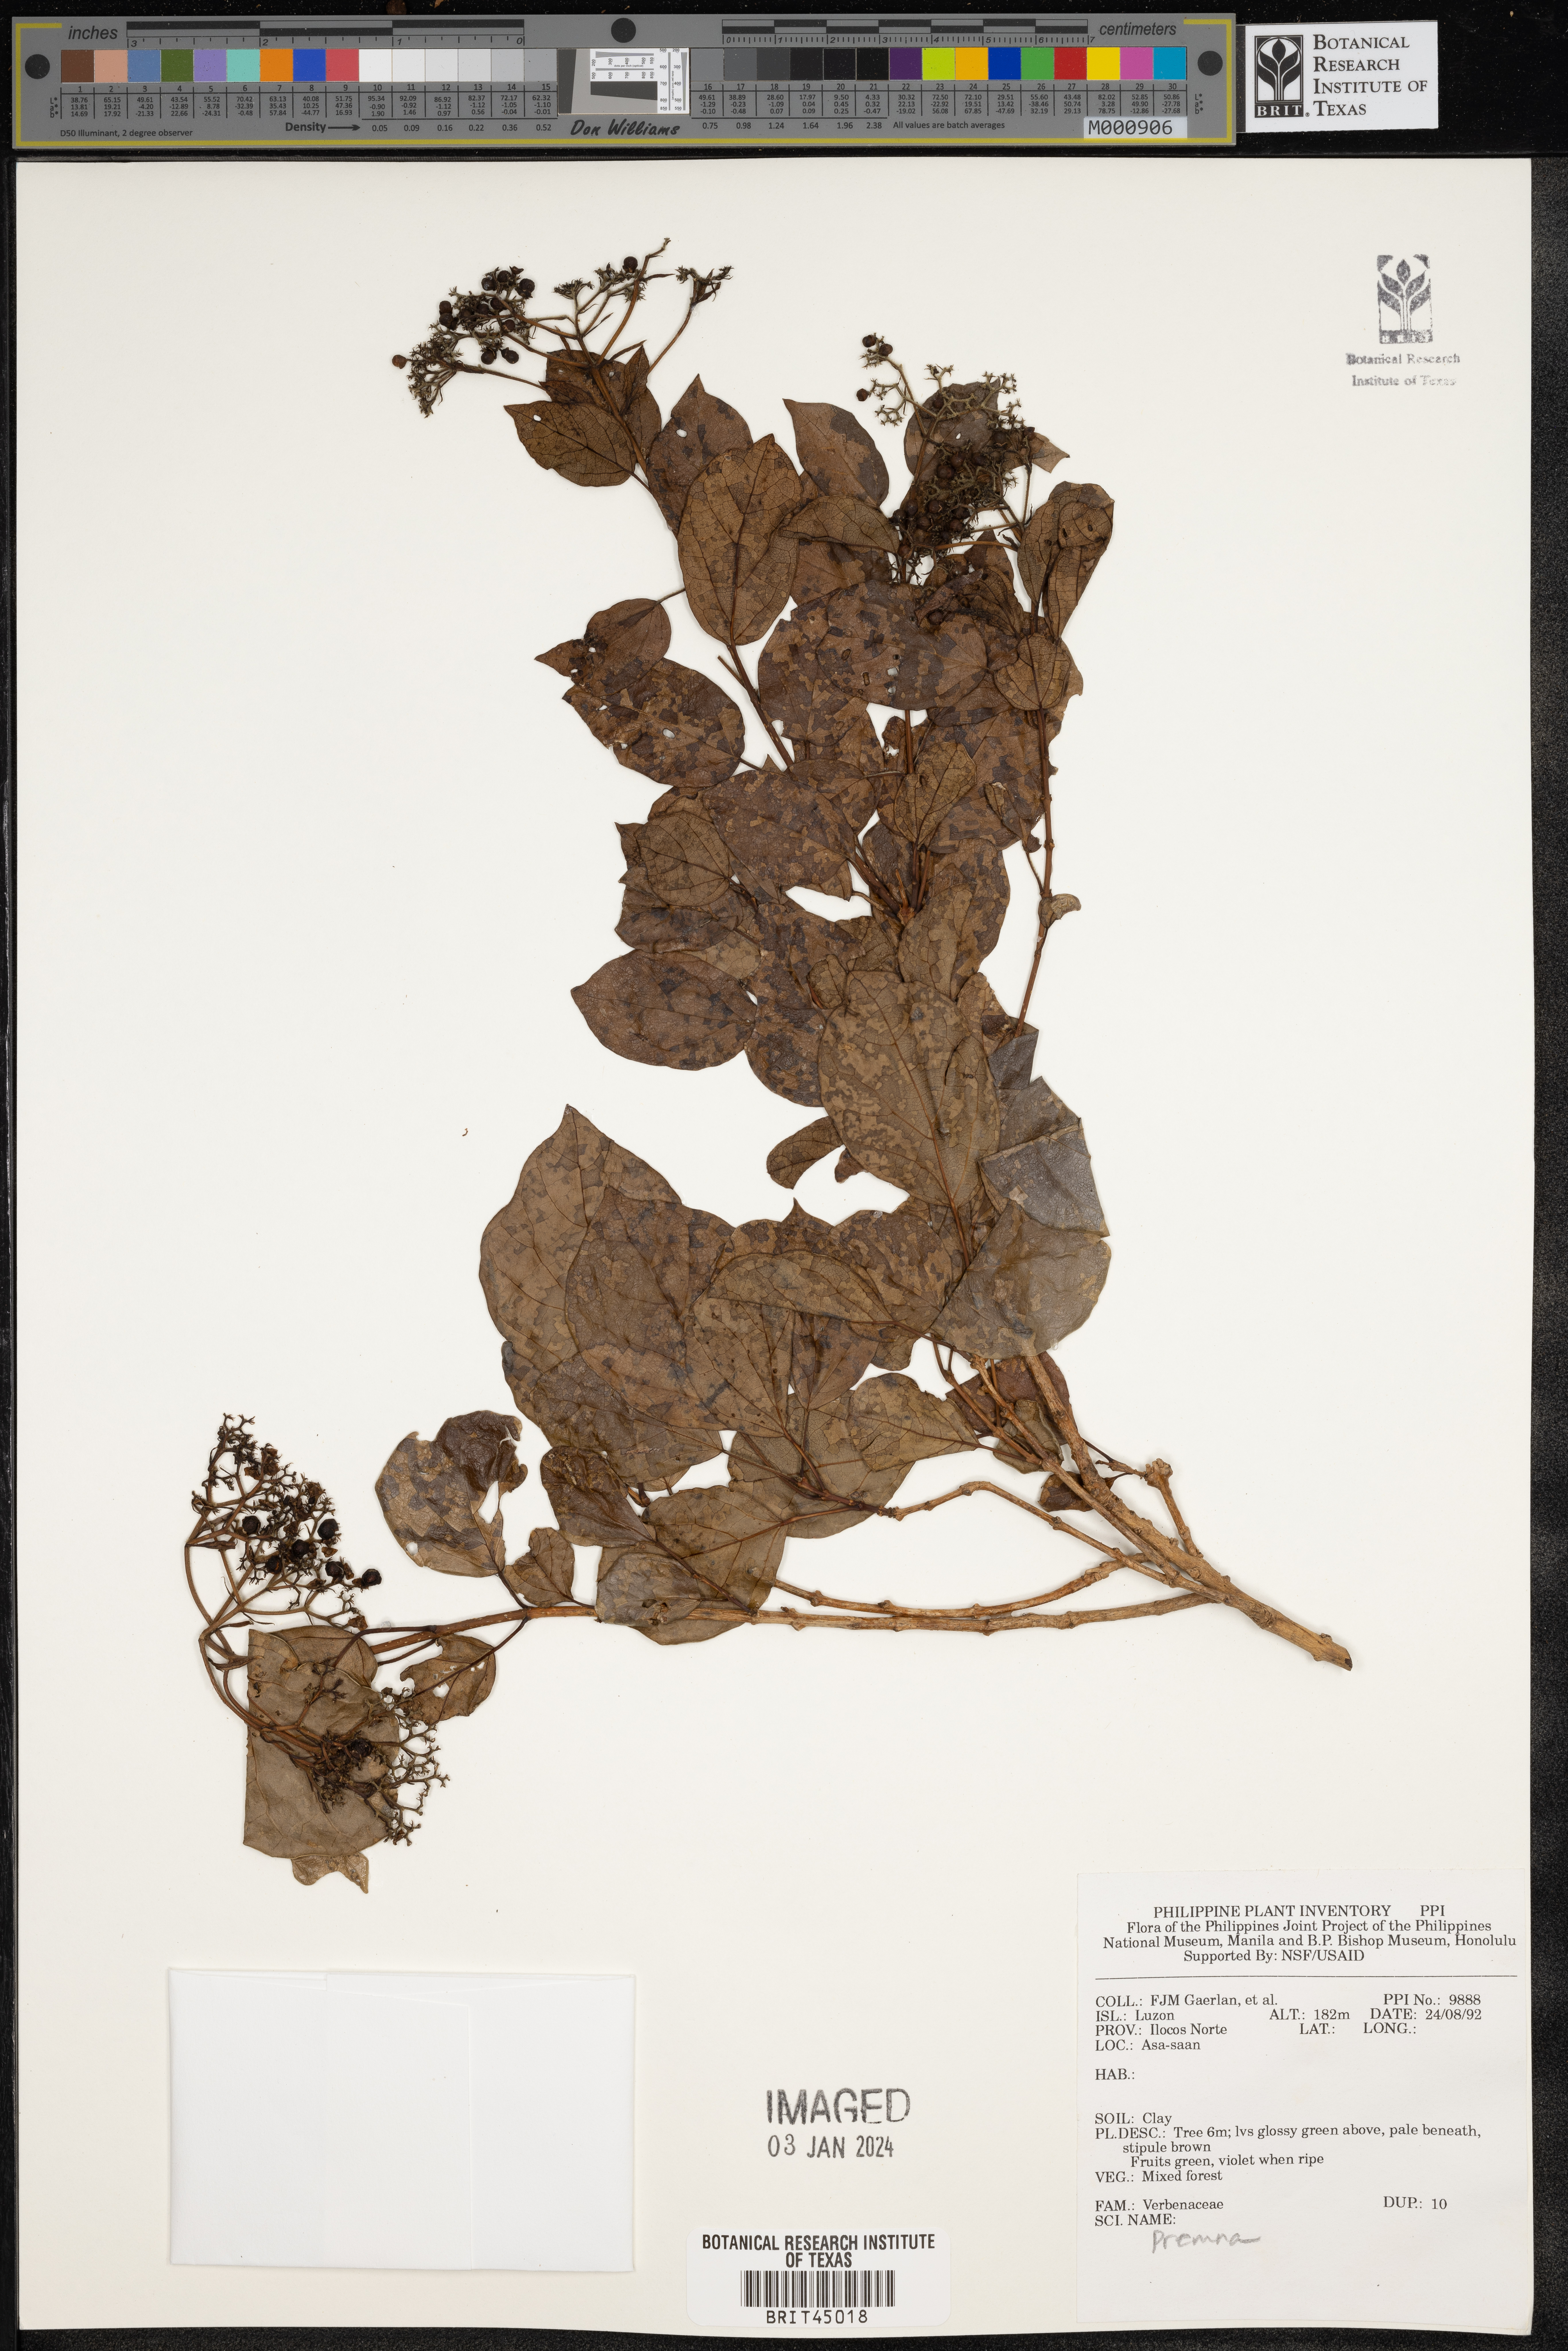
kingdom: Plantae
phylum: Tracheophyta
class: Magnoliopsida
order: Lamiales
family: Lamiaceae
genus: Premna
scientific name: Premna
